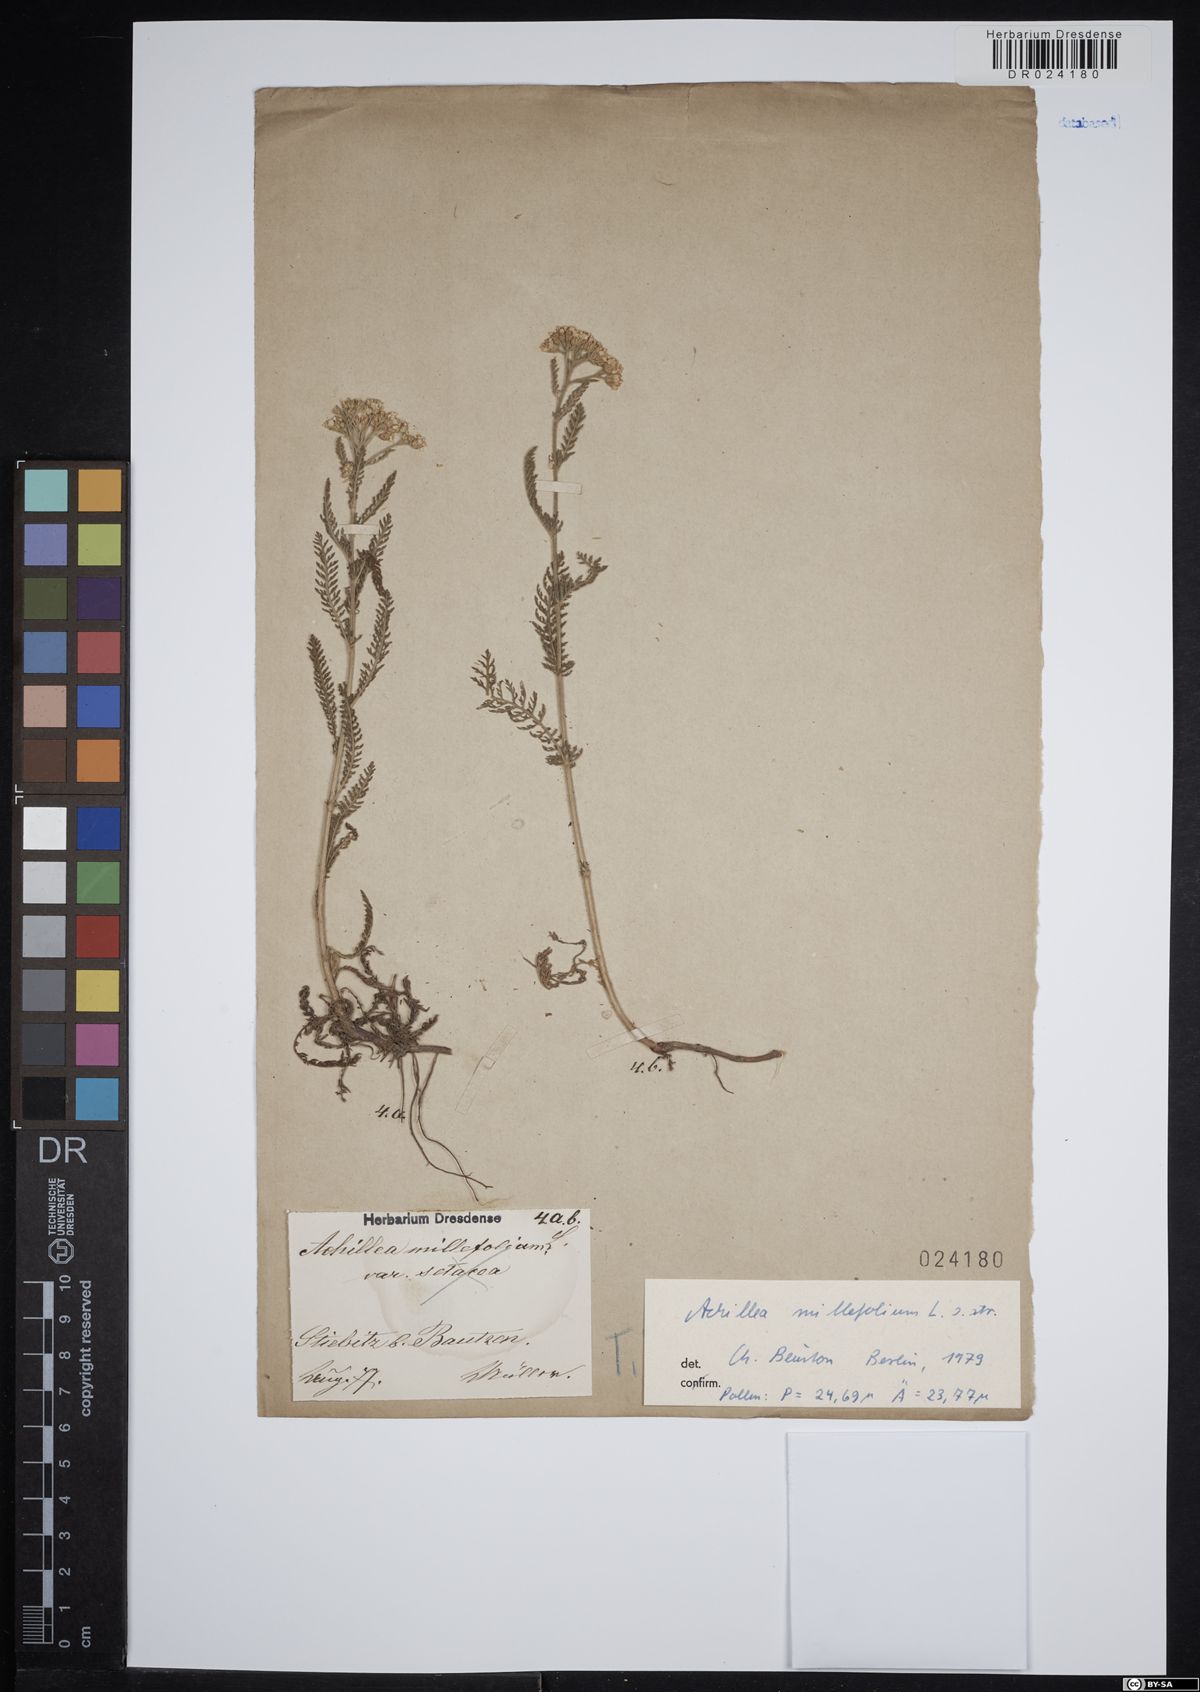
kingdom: Plantae
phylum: Tracheophyta
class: Magnoliopsida
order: Asterales
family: Asteraceae
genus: Achillea
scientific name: Achillea millefolium
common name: Yarrow
